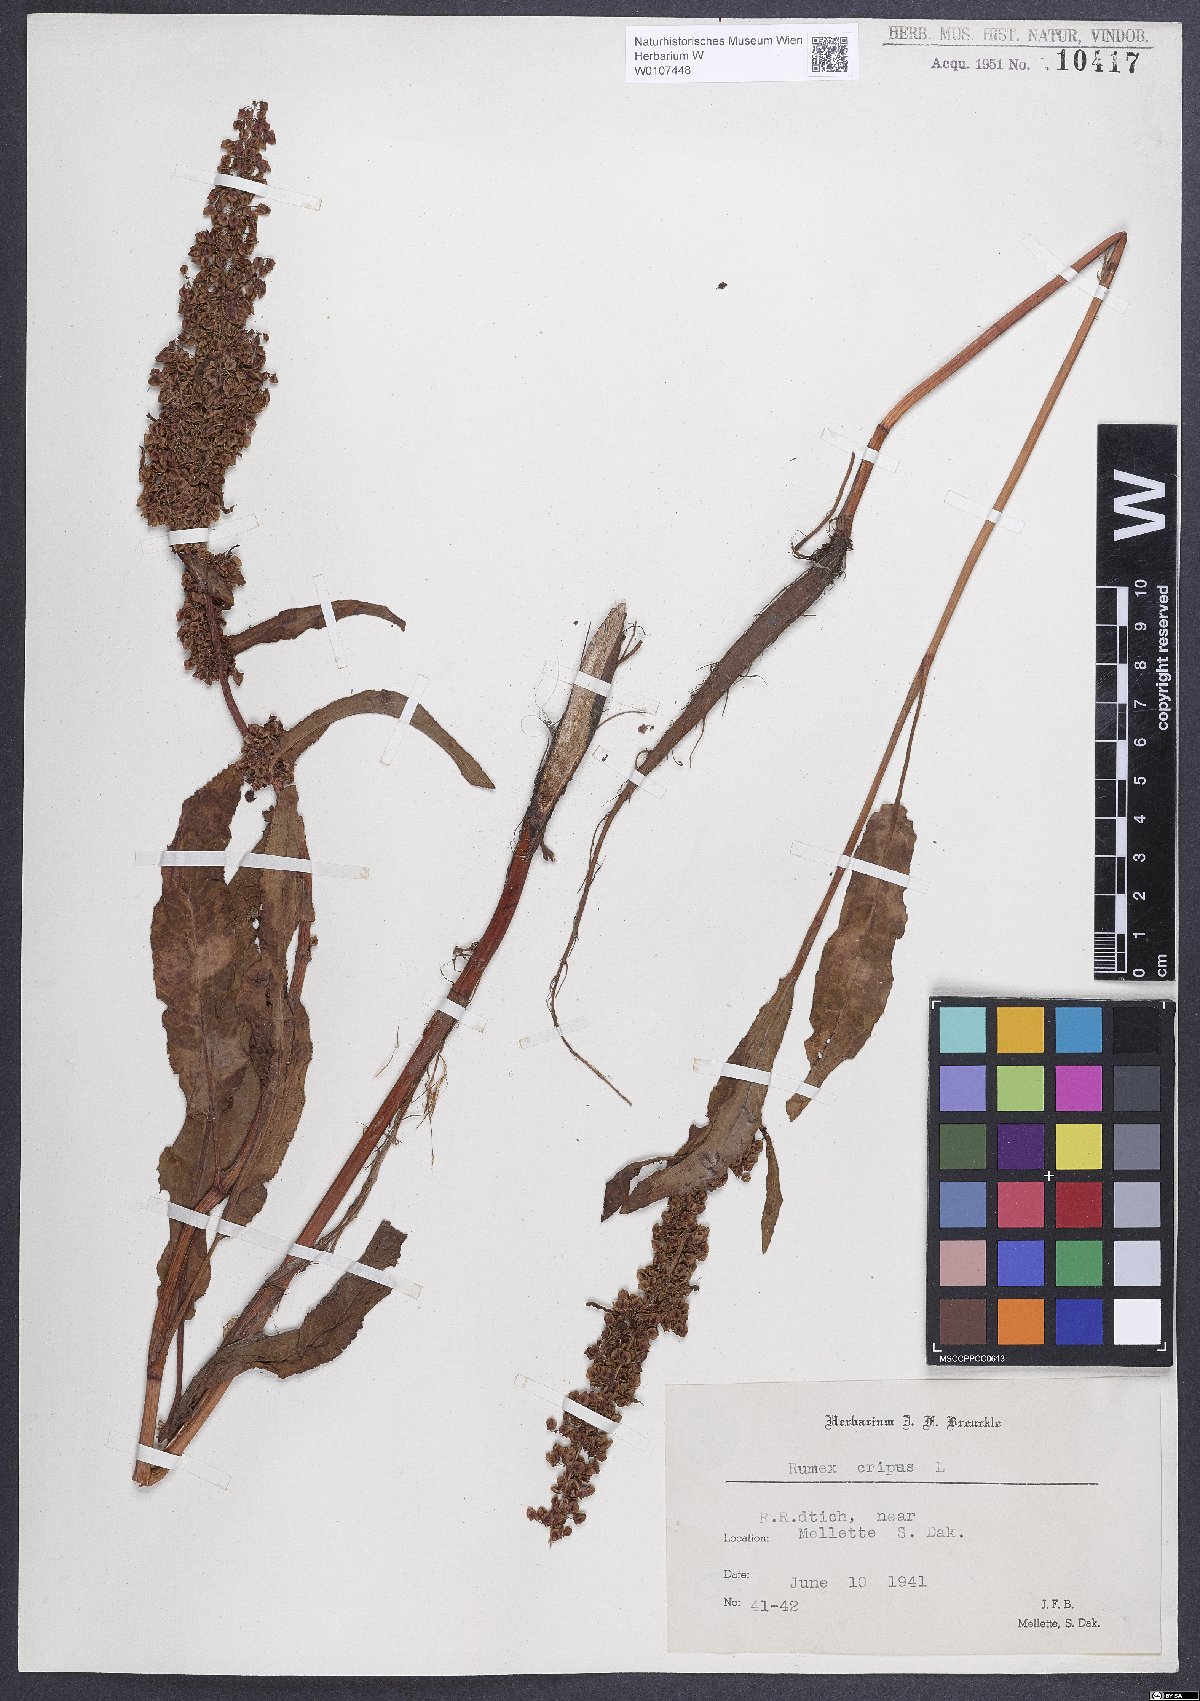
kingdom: Plantae
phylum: Tracheophyta
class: Magnoliopsida
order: Caryophyllales
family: Polygonaceae
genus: Rumex
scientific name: Rumex crispus
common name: Curled dock
